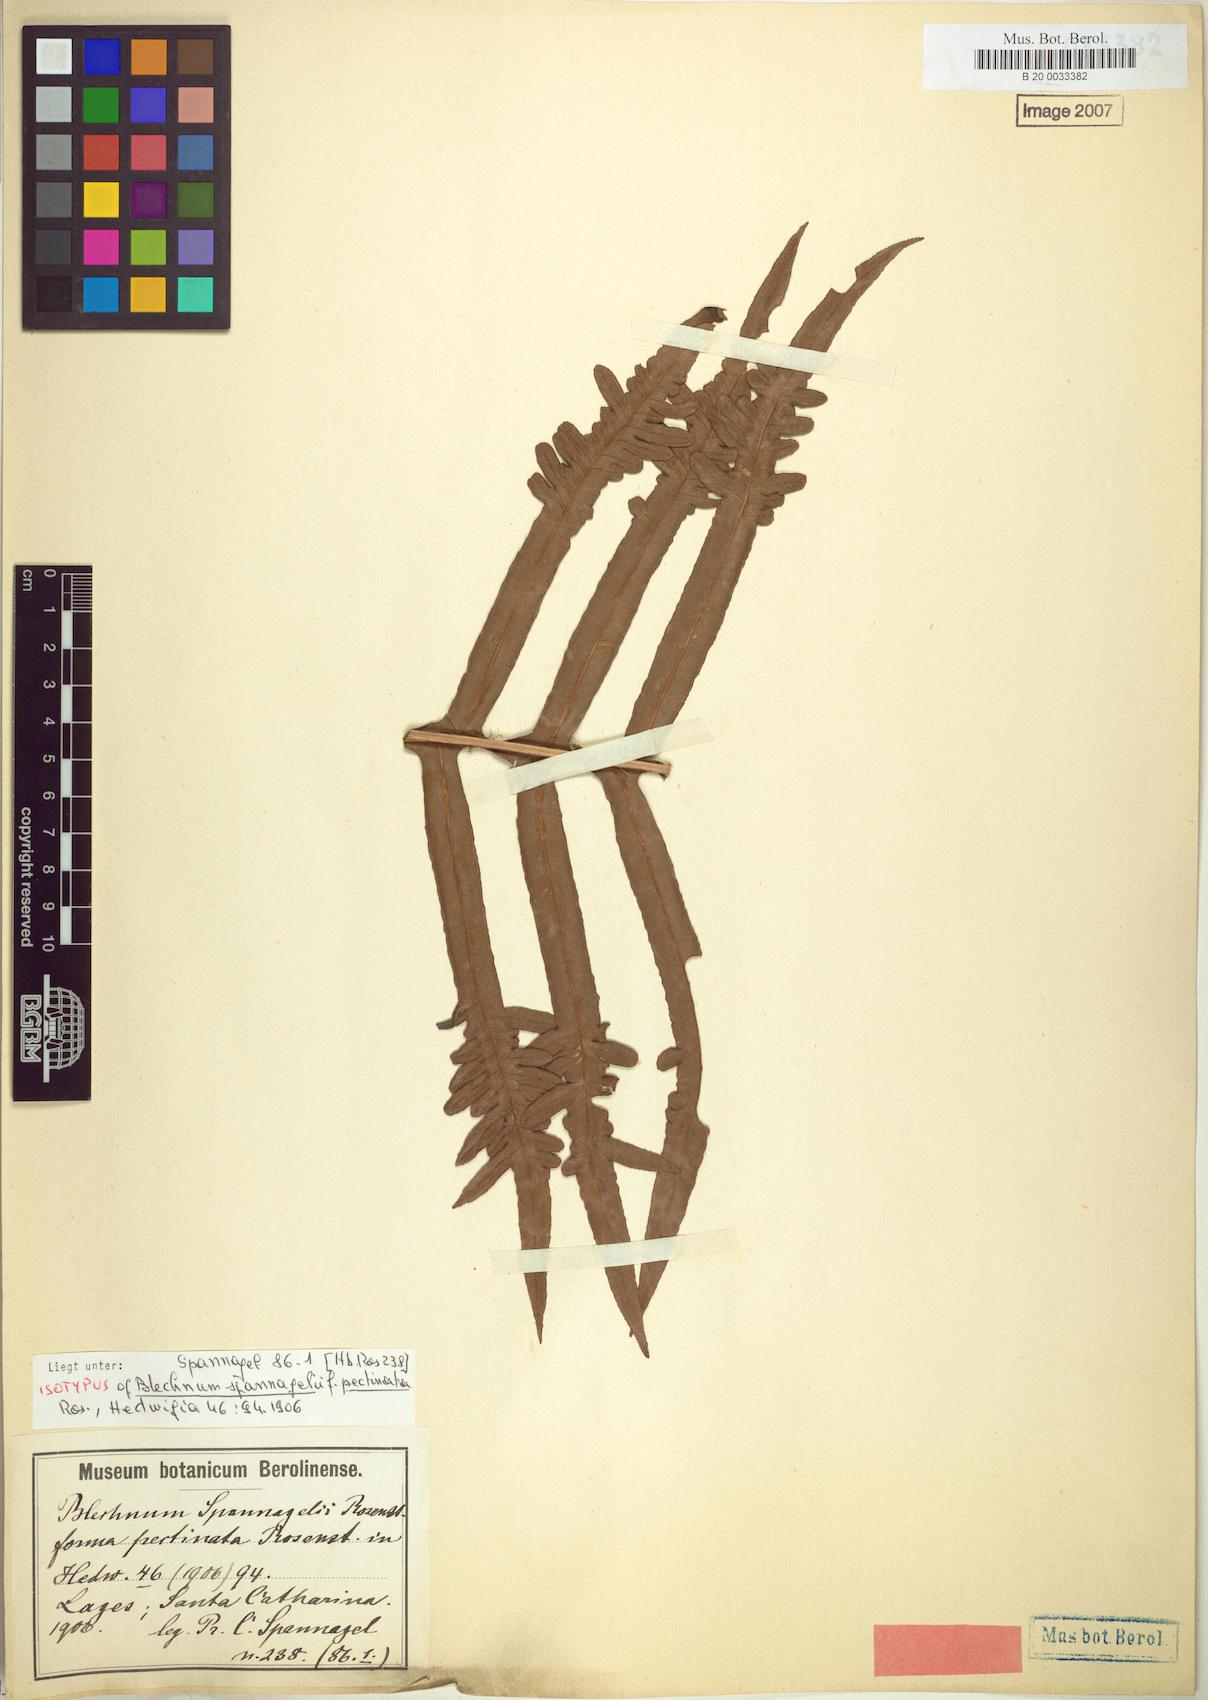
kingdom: Plantae
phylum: Tracheophyta
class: Polypodiopsida
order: Polypodiales
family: Blechnaceae
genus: Lomaria
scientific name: Lomaria spannagelii
